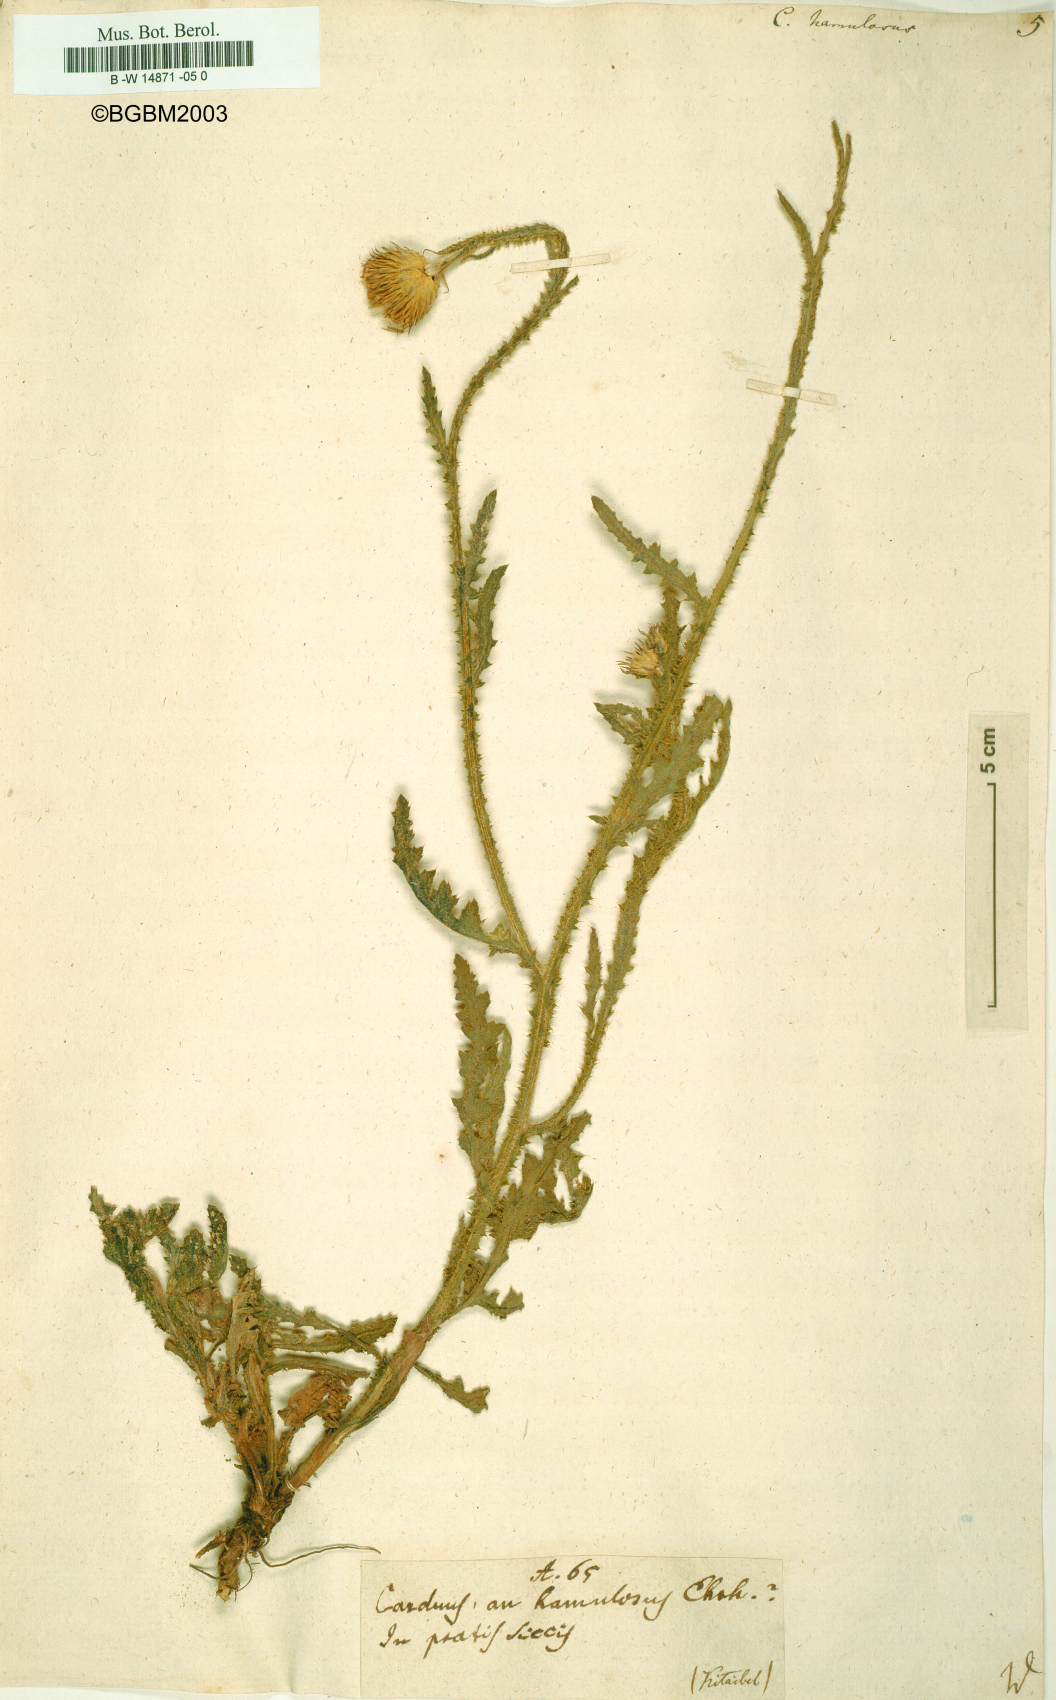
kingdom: Plantae
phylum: Tracheophyta
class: Magnoliopsida
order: Asterales
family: Asteraceae
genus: Carduus
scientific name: Carduus hamulosus
